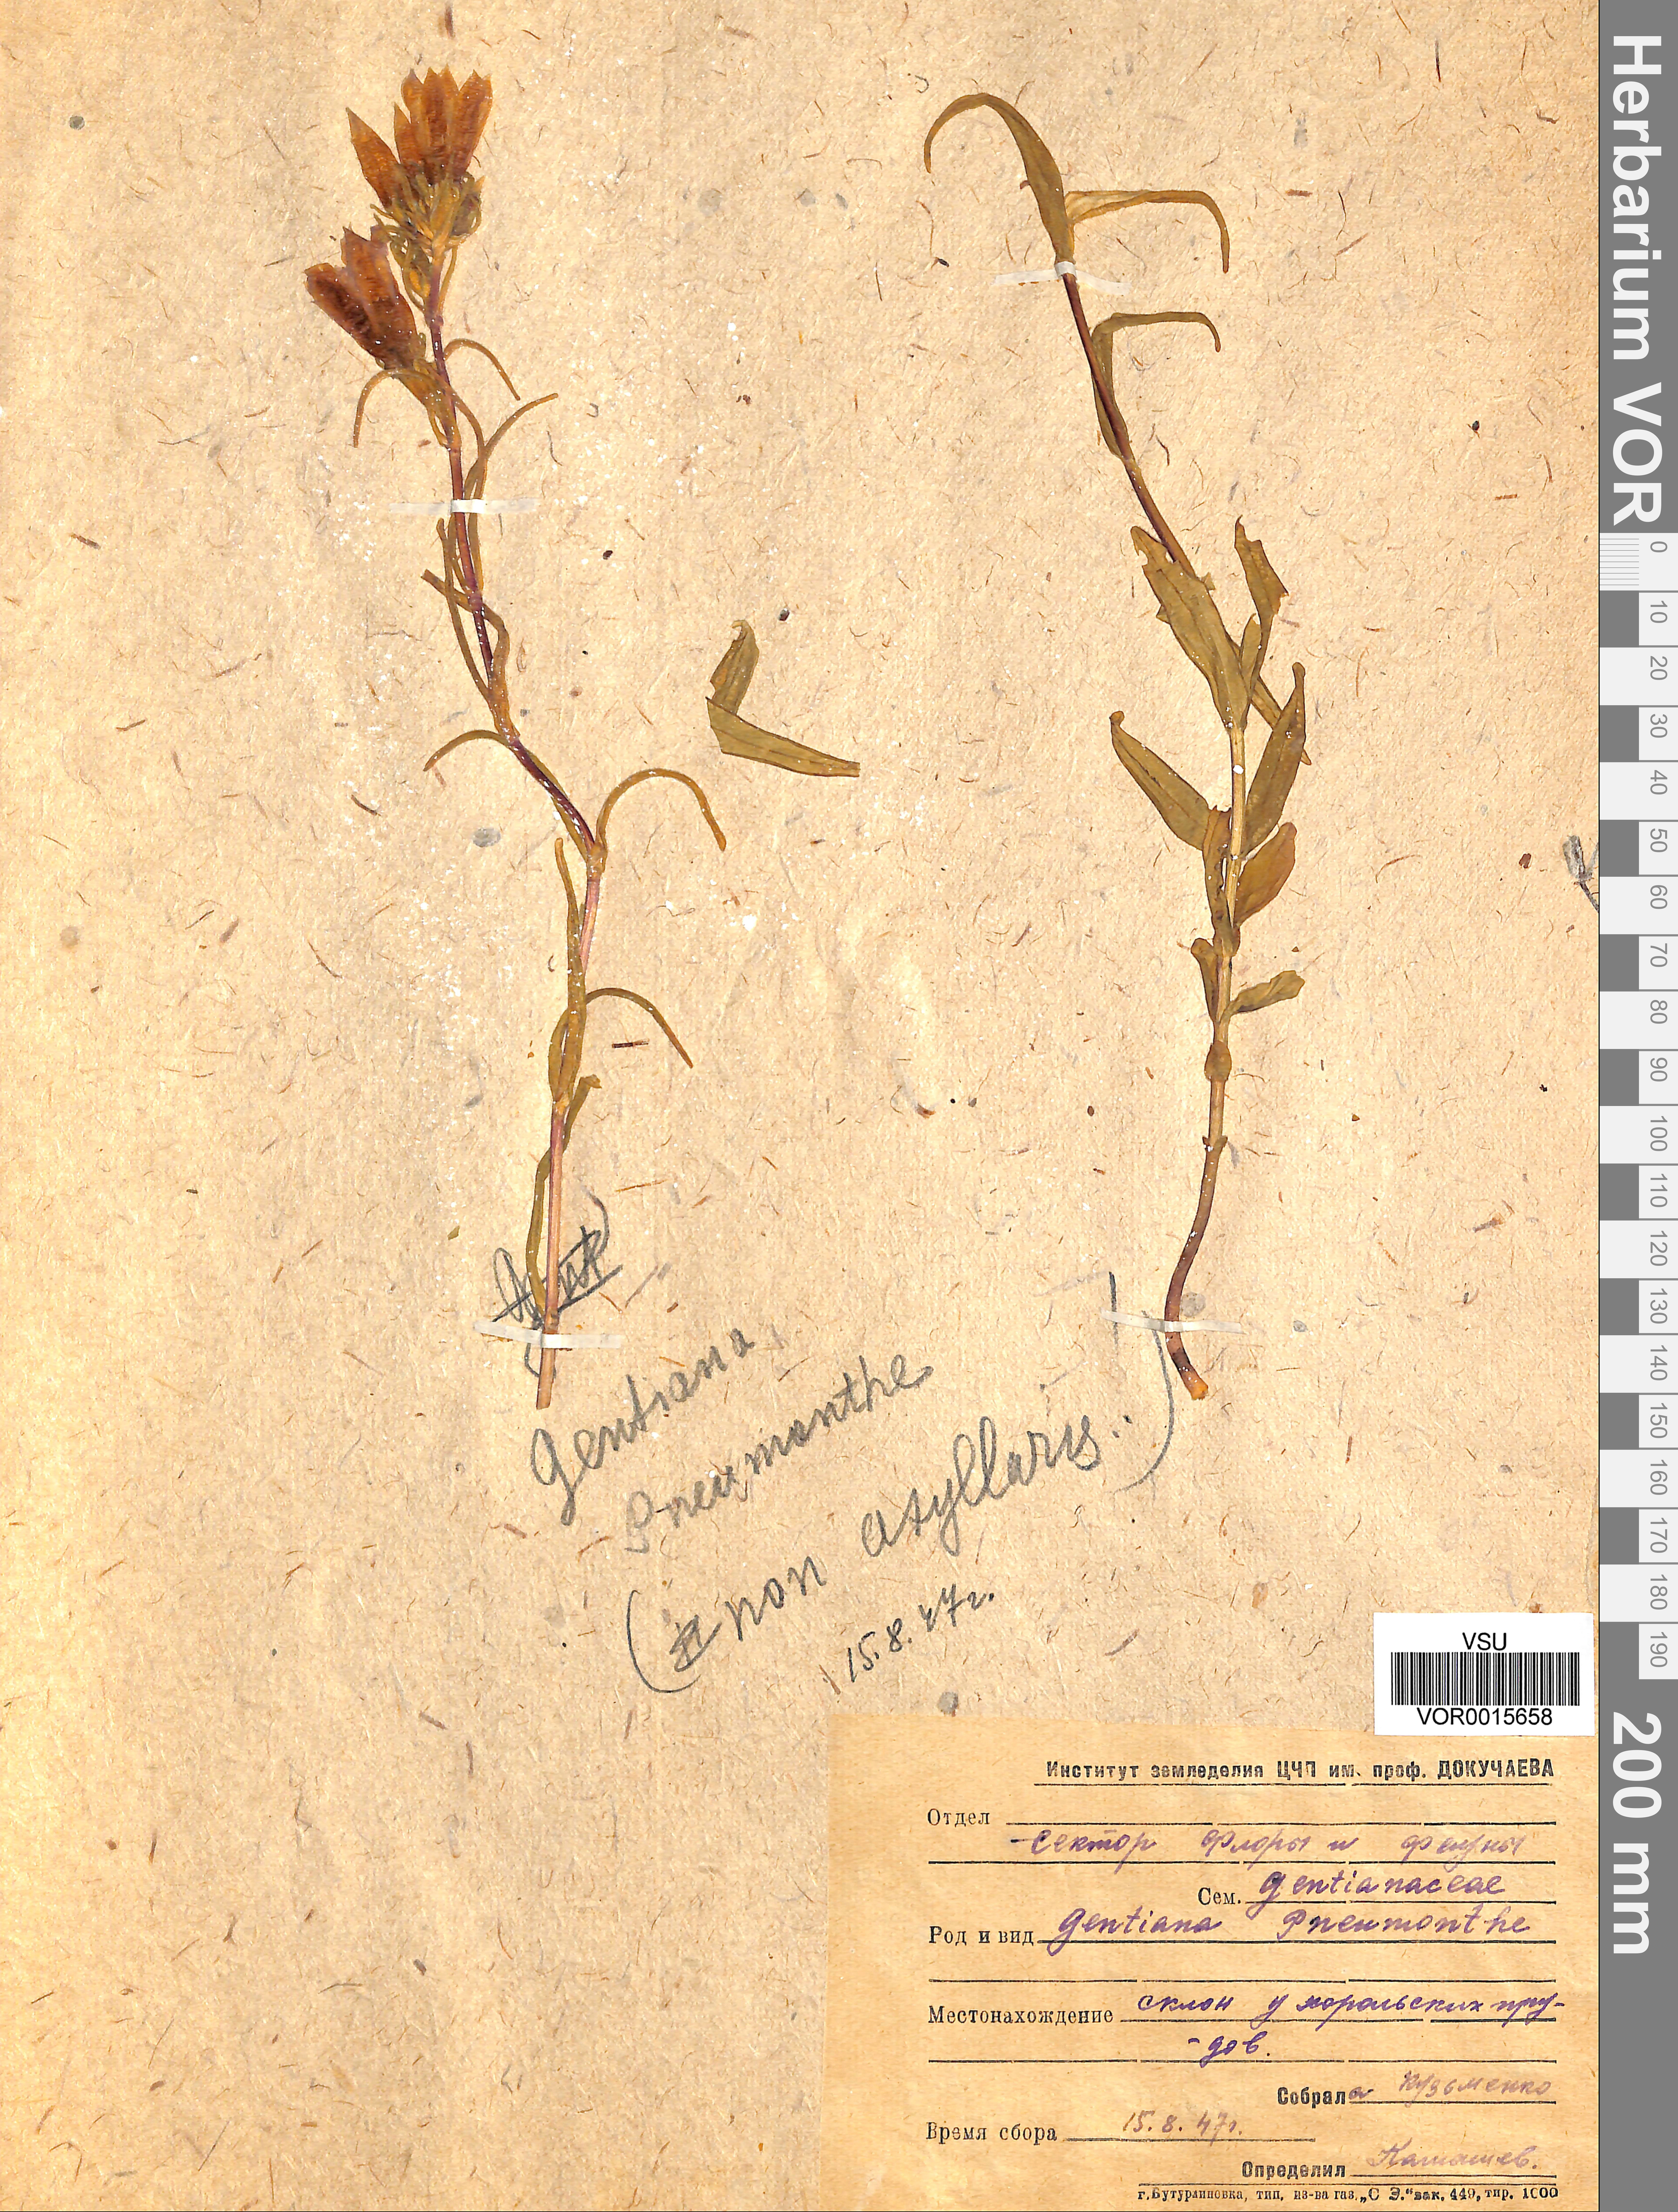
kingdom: Plantae
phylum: Tracheophyta
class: Magnoliopsida
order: Gentianales
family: Gentianaceae
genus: Gentiana
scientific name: Gentiana pneumonanthe
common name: Marsh gentian
